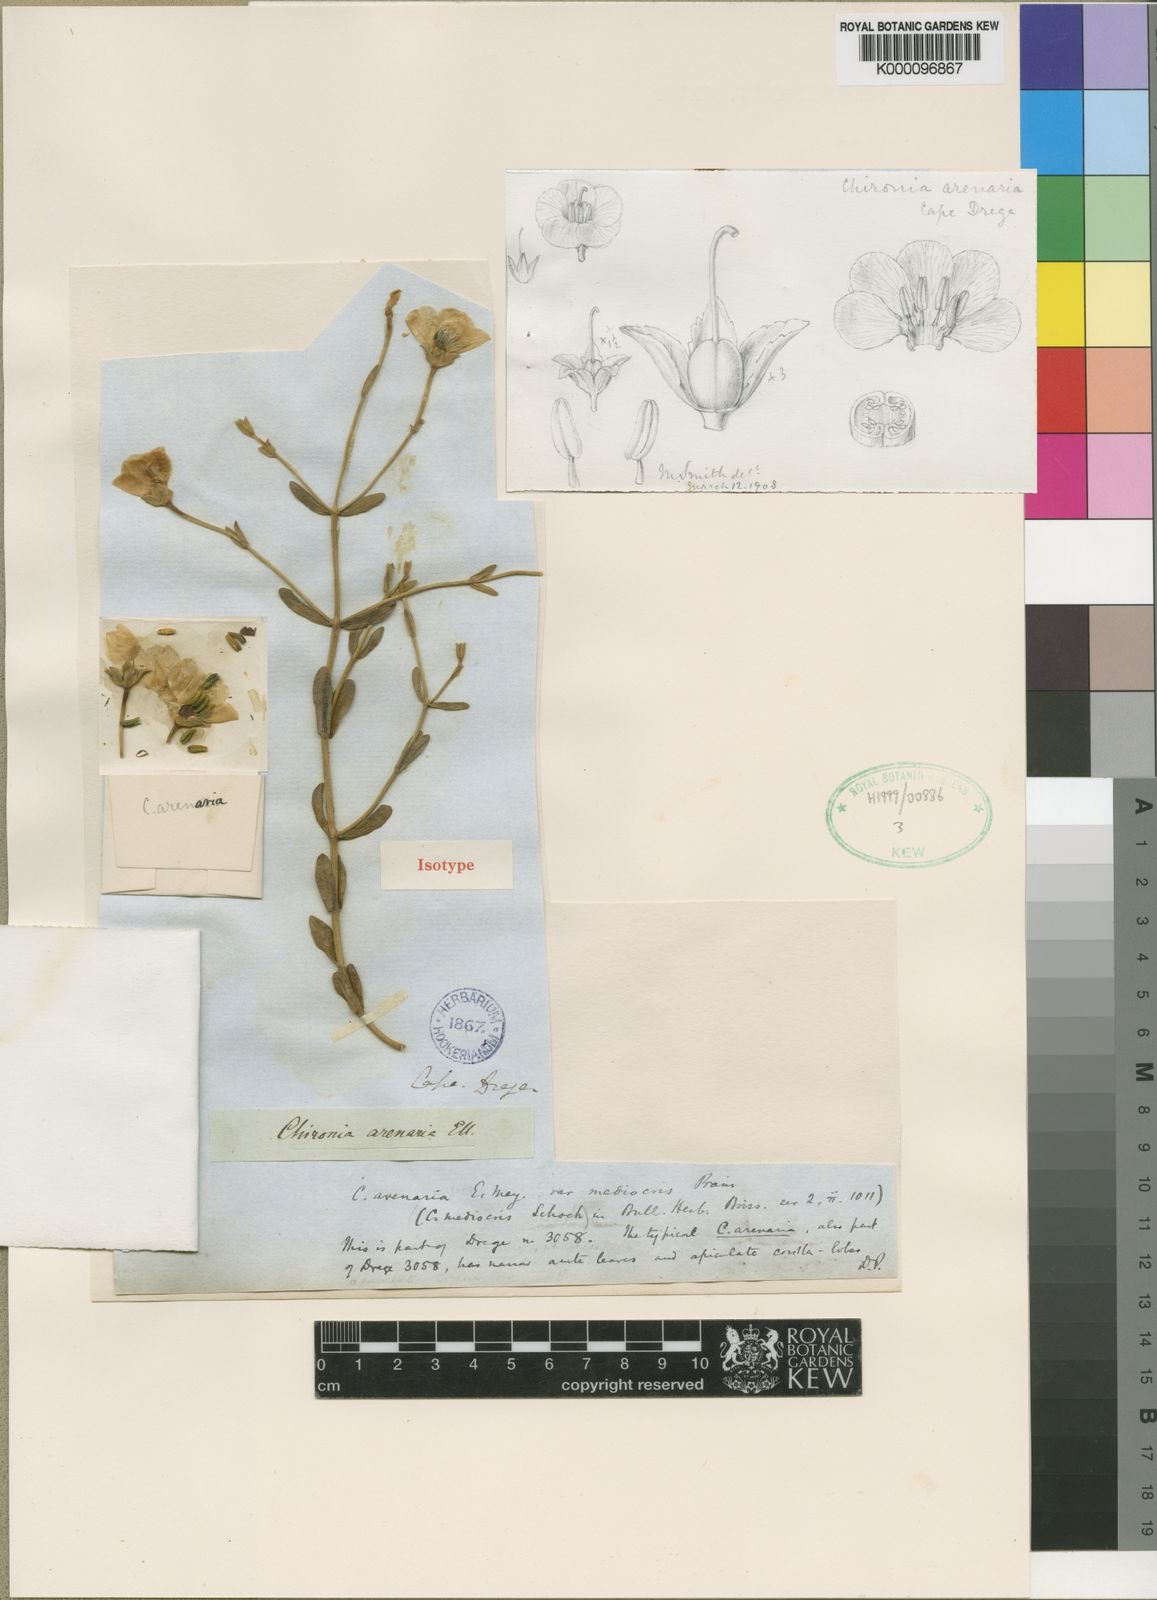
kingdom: Plantae
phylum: Tracheophyta
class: Magnoliopsida
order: Gentianales
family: Gentianaceae
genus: Chironia
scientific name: Chironia arenaria
